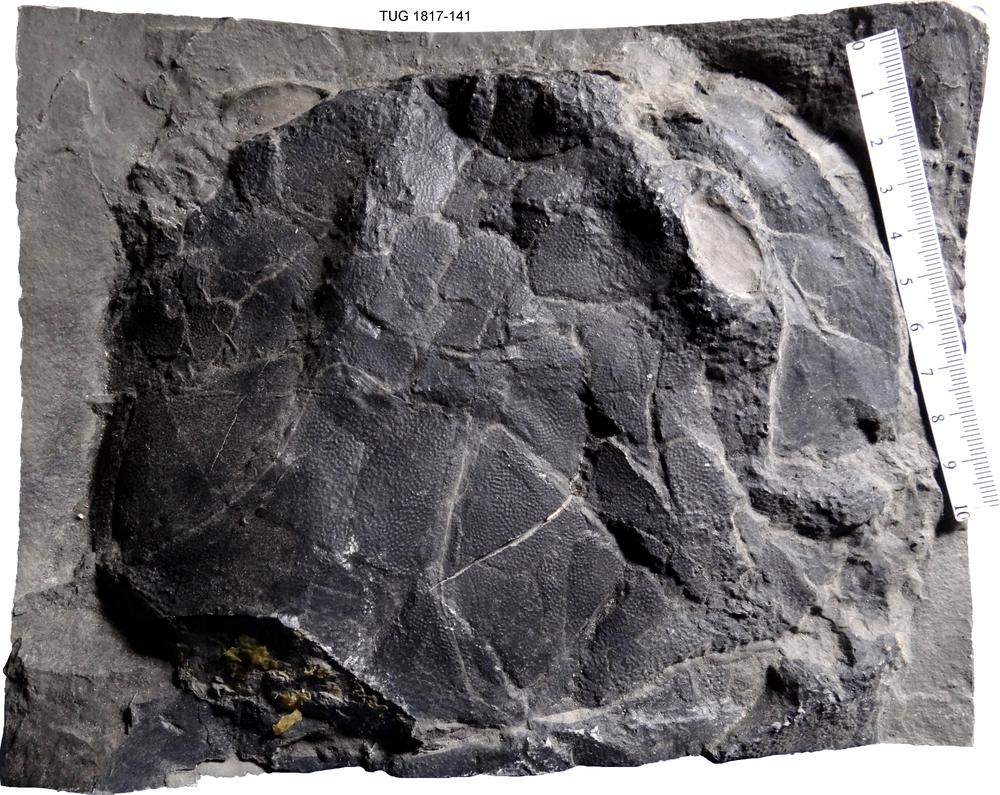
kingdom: Animalia
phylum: Chordata
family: Coccosteidae
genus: Watsonosteus
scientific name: Watsonosteus fletti
